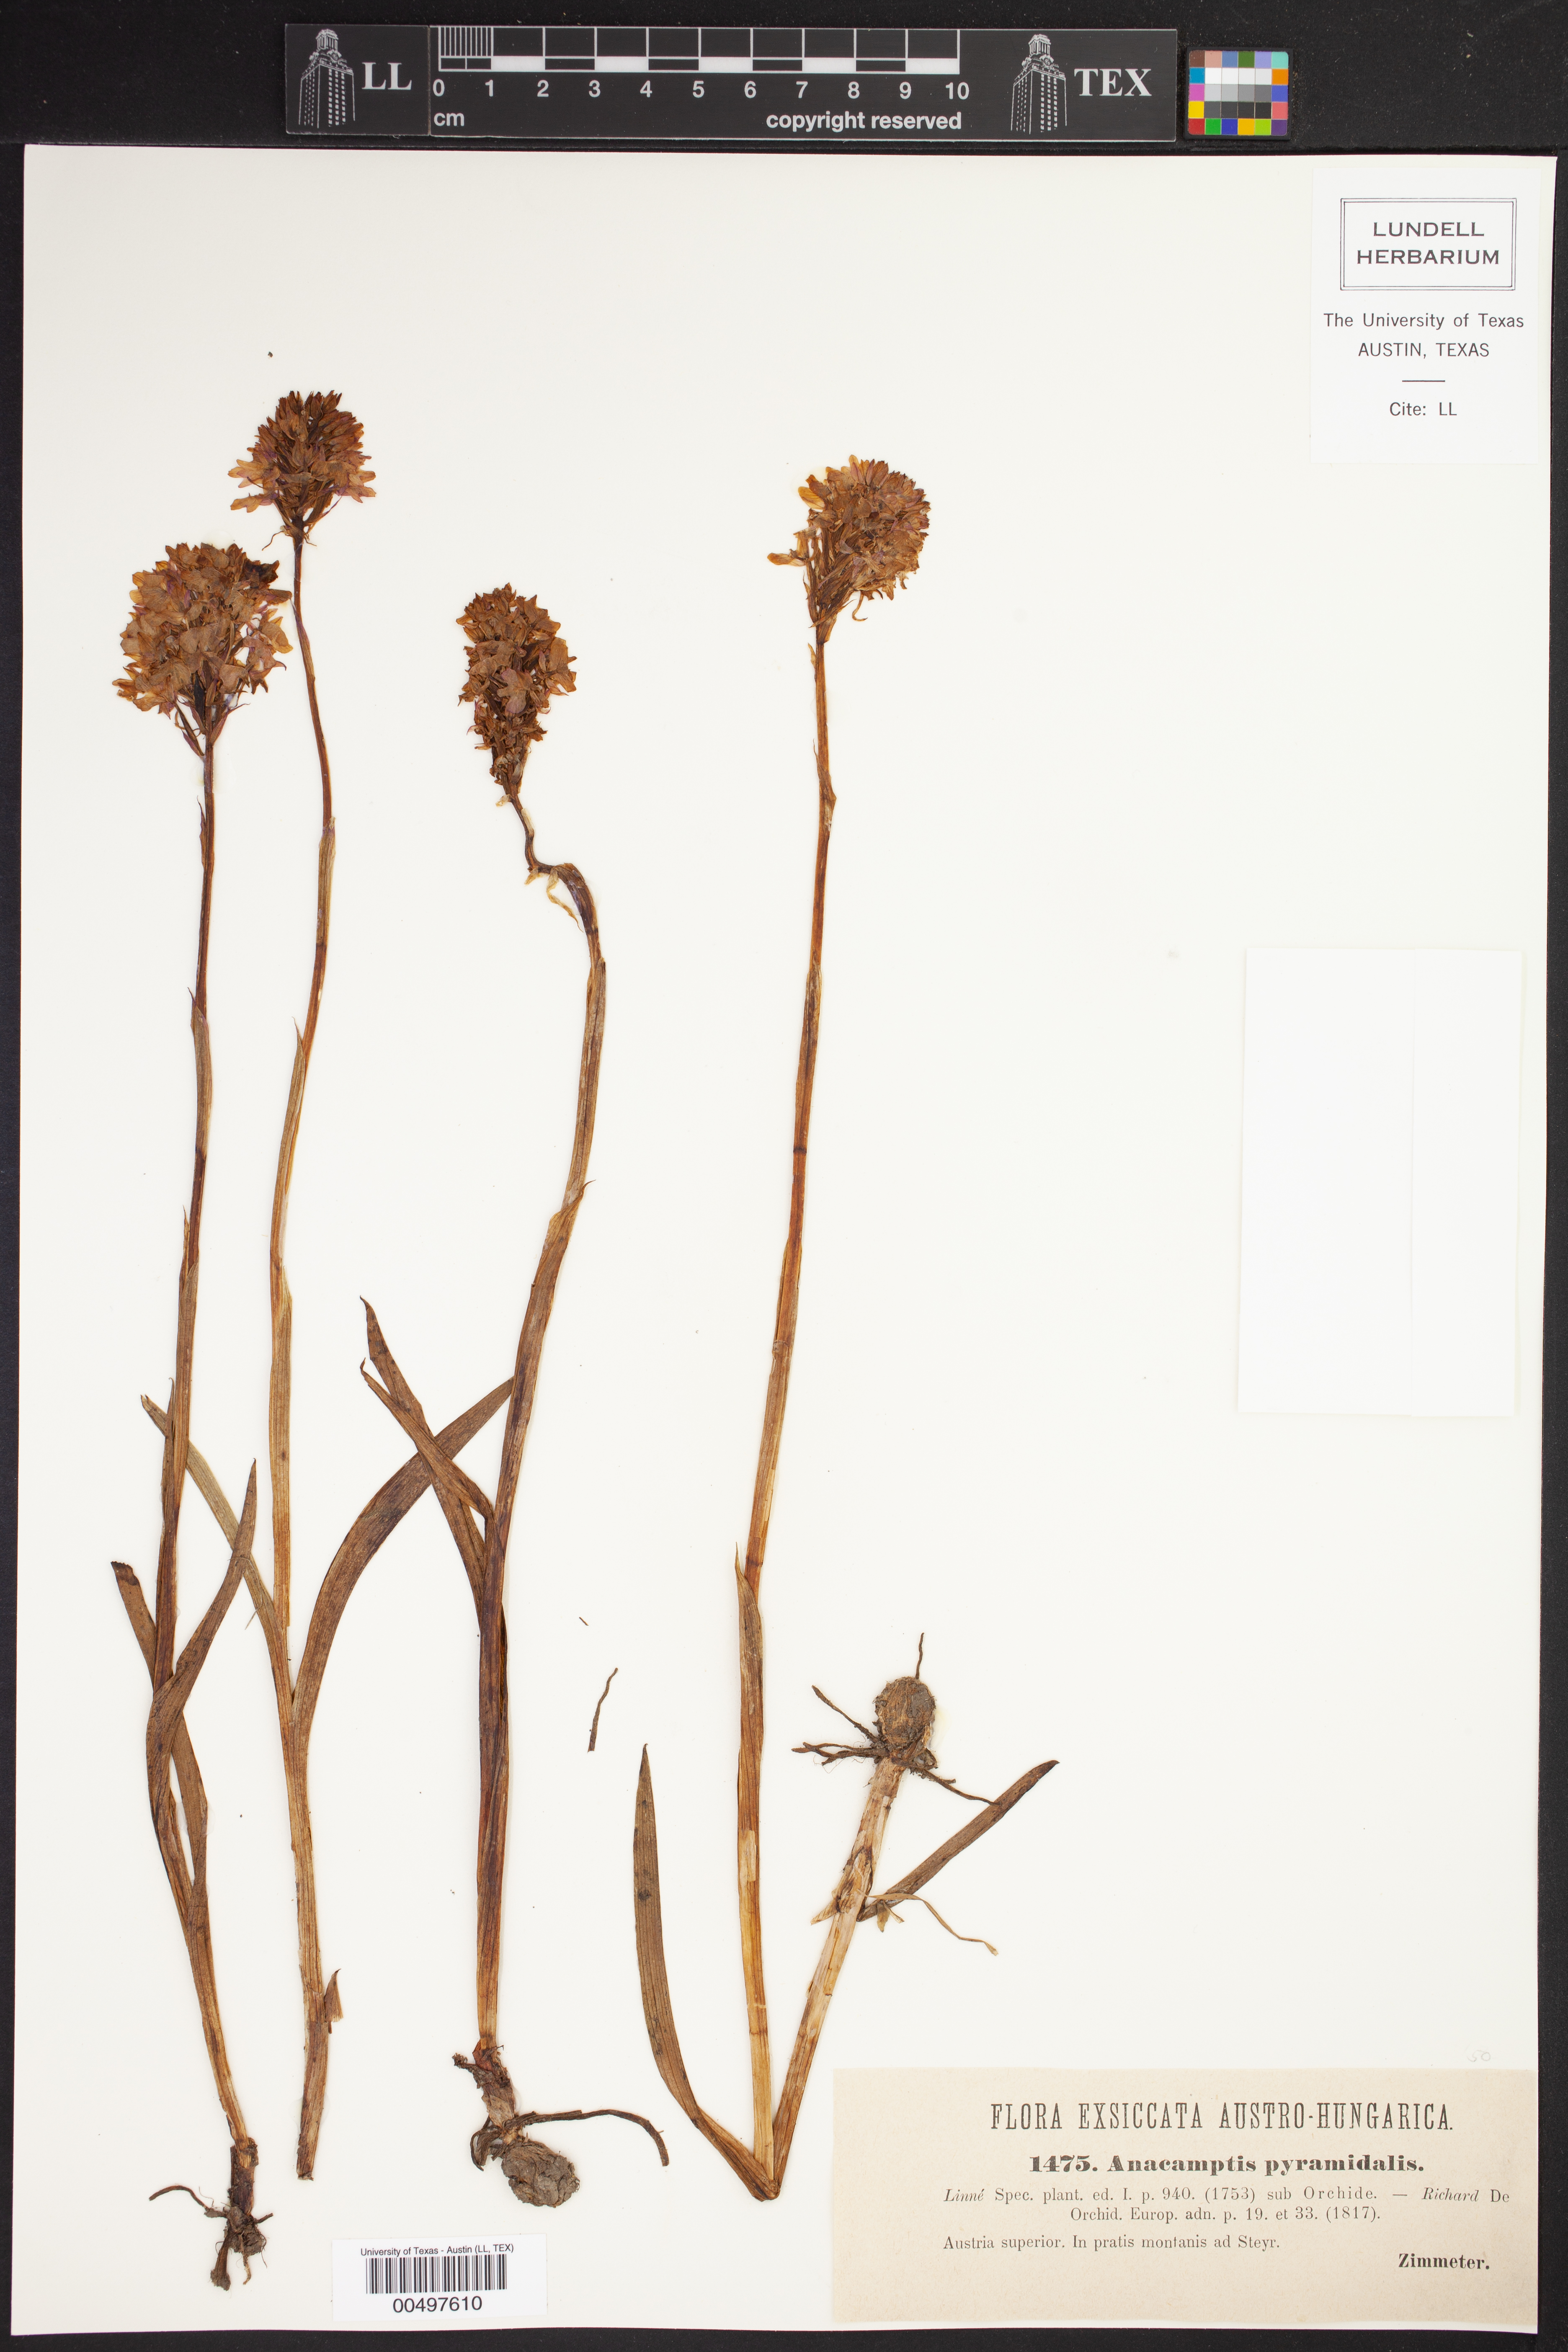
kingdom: Plantae
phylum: Tracheophyta
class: Liliopsida
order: Asparagales
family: Orchidaceae
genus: Anacamptis
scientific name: Anacamptis pyramidalis
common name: Pyramidal orchid
